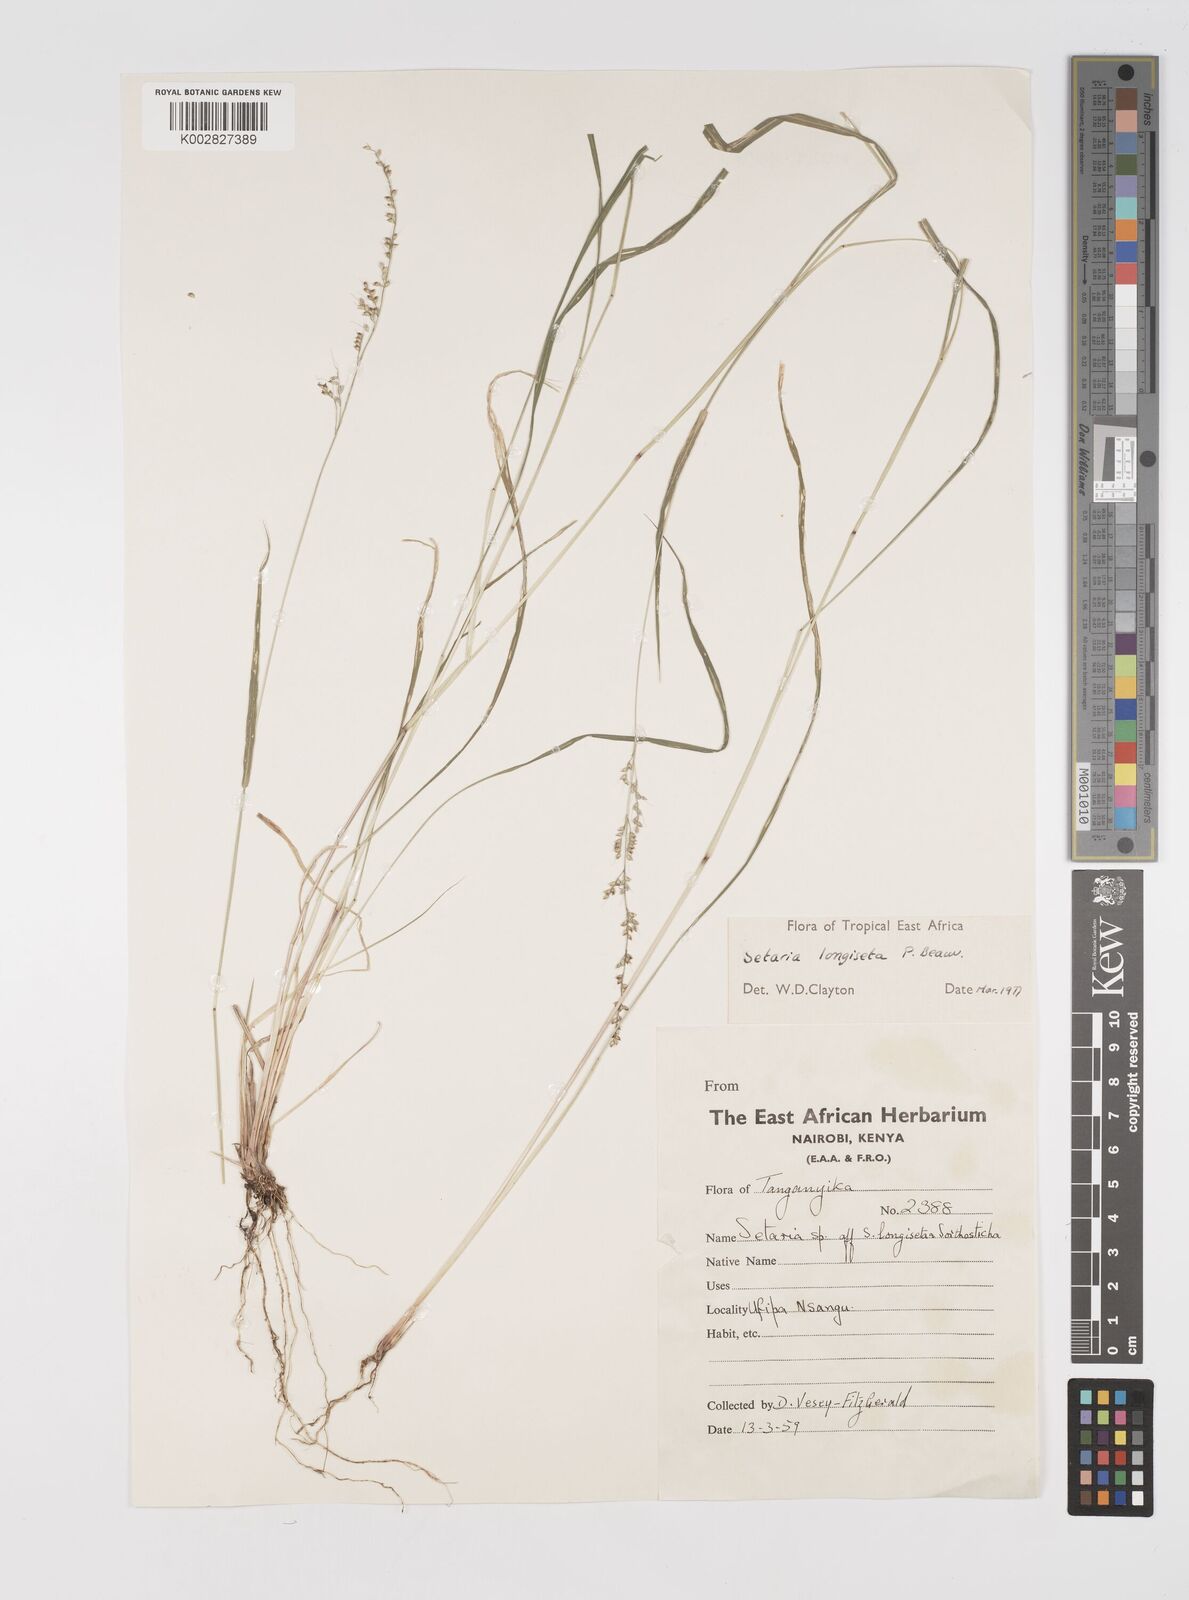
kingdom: Plantae
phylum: Tracheophyta
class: Liliopsida
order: Poales
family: Poaceae
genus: Setaria
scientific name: Setaria longiseta
